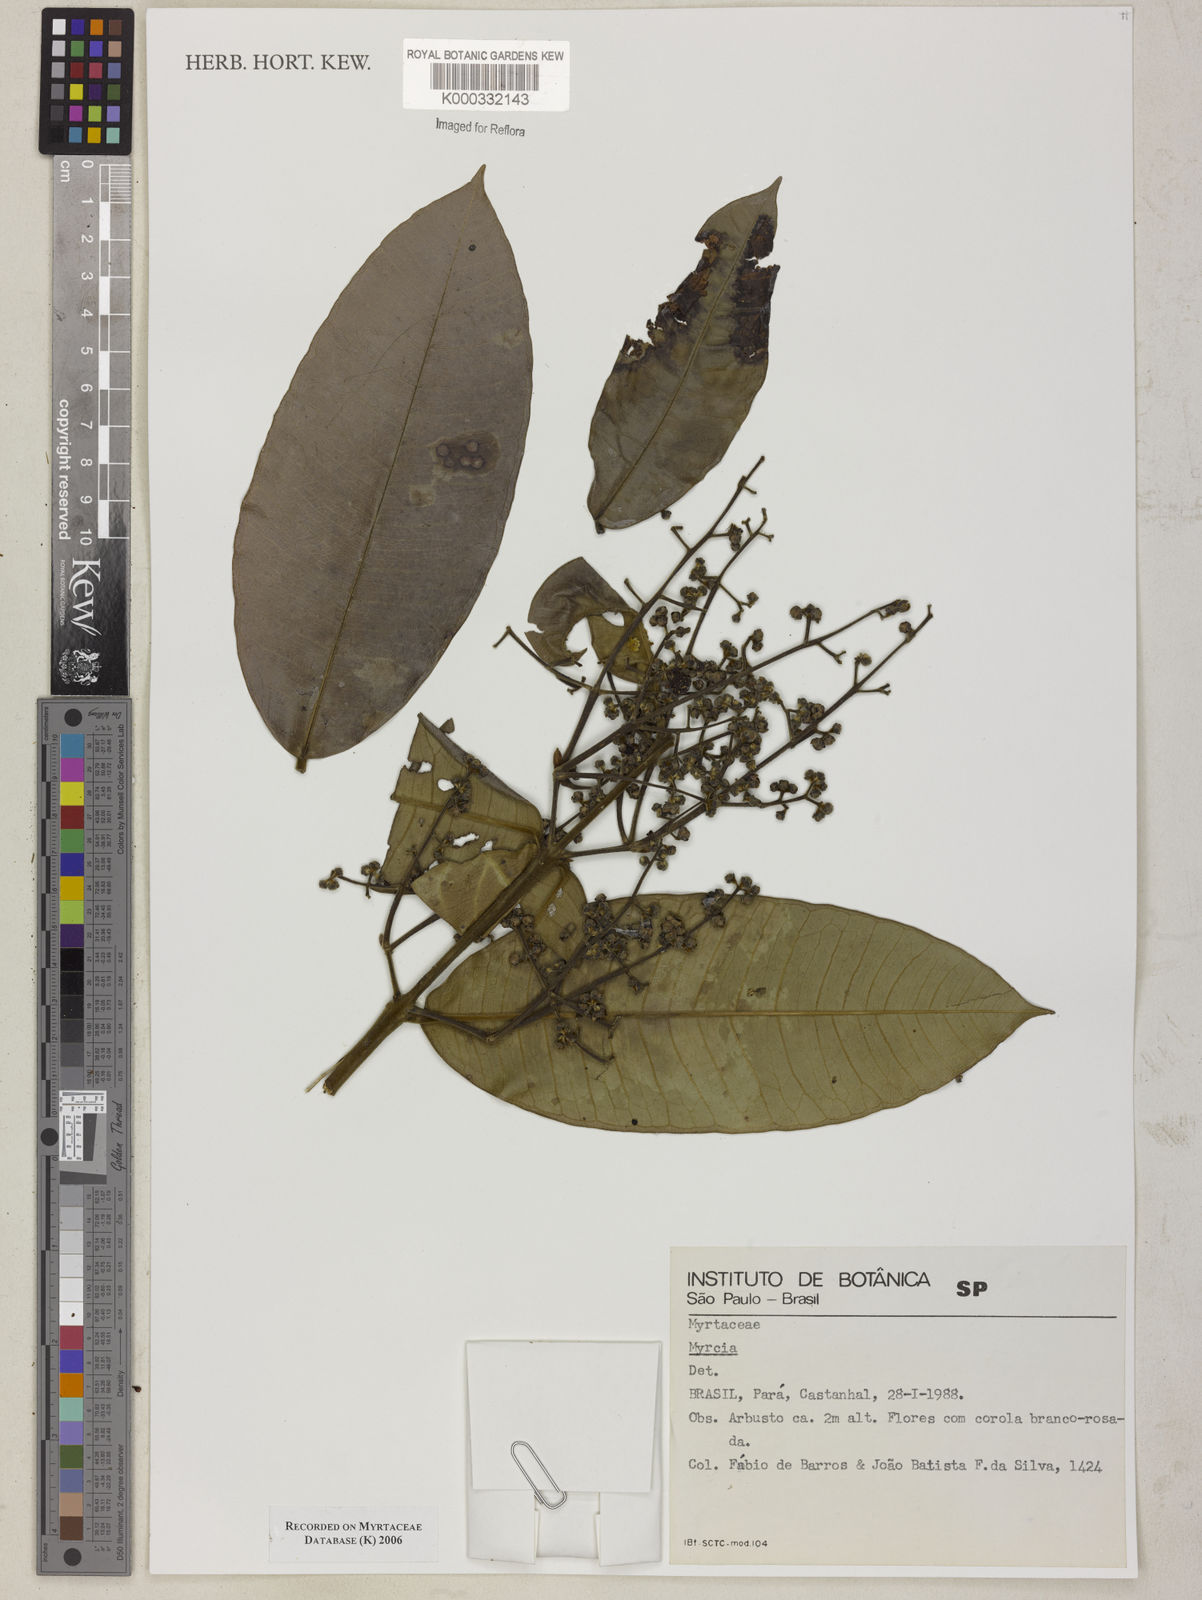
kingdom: Plantae
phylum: Tracheophyta
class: Magnoliopsida
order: Myrtales
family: Myrtaceae
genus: Myrcia
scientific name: Myrcia
